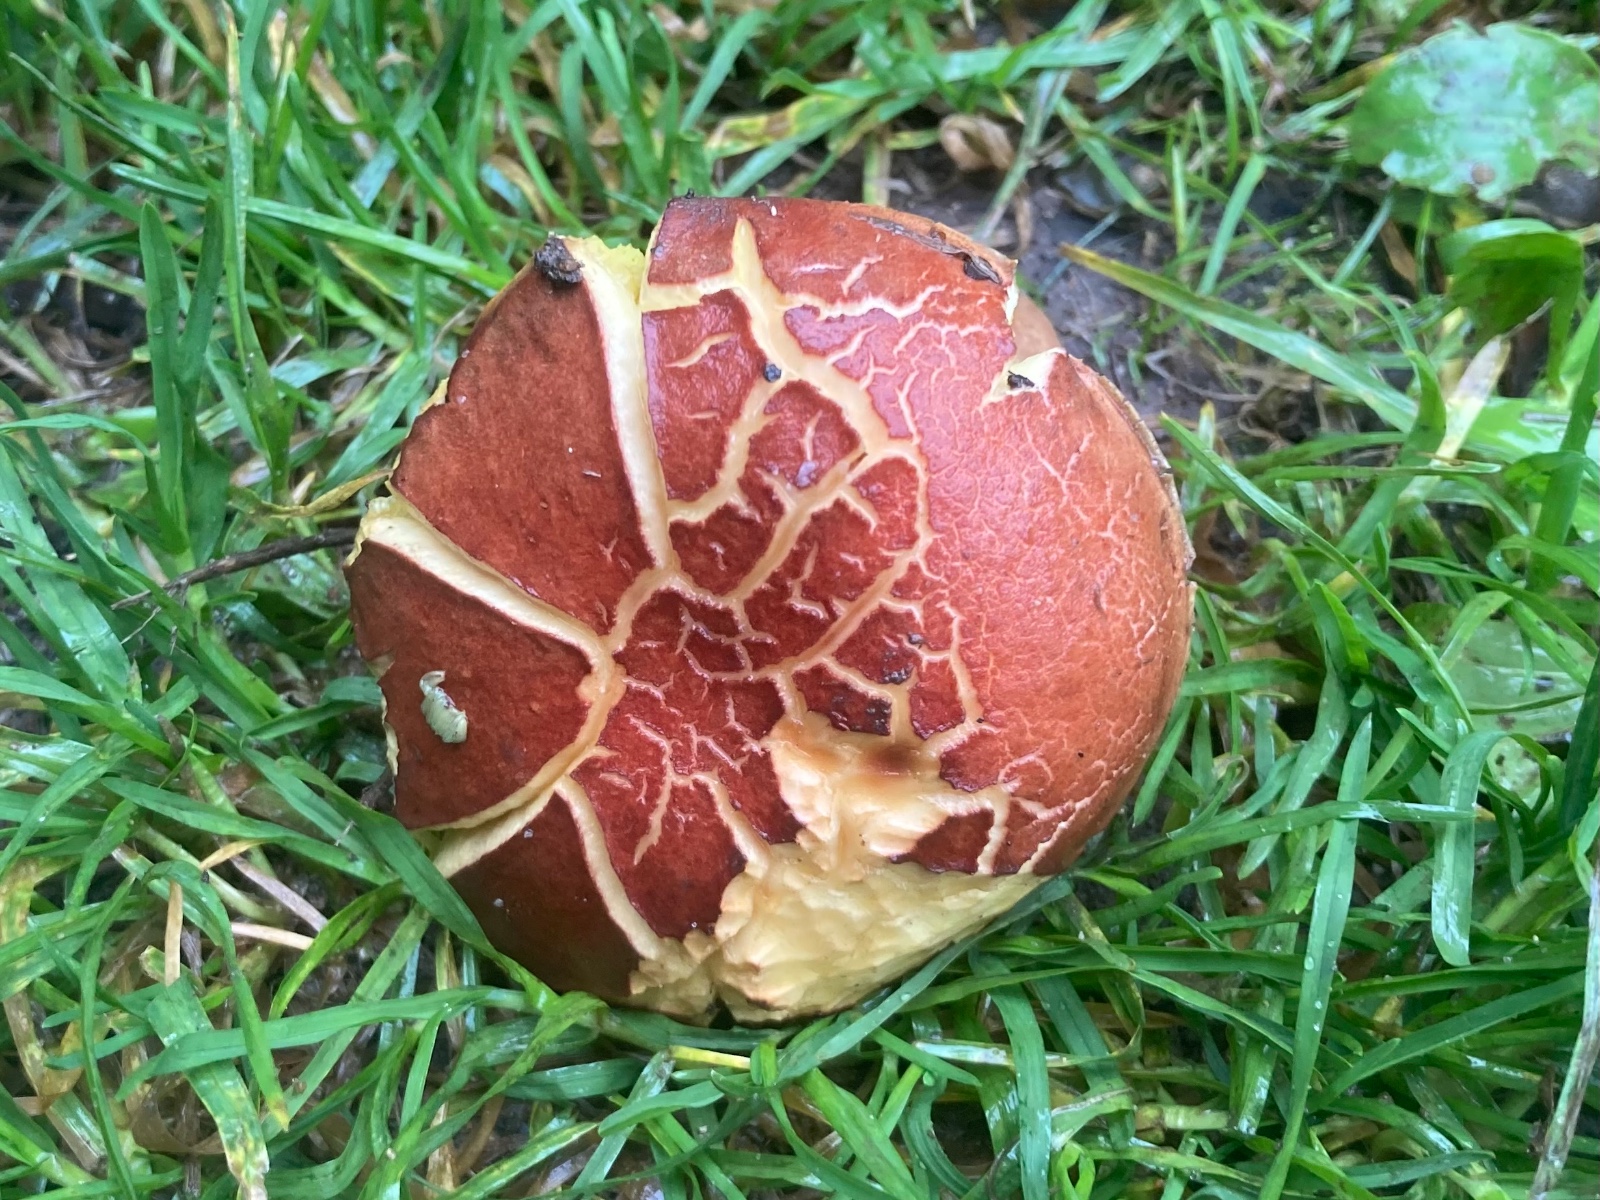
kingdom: Fungi
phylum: Basidiomycota
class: Agaricomycetes
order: Boletales
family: Boletaceae
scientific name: Boletaceae
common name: rørhatfamilien
